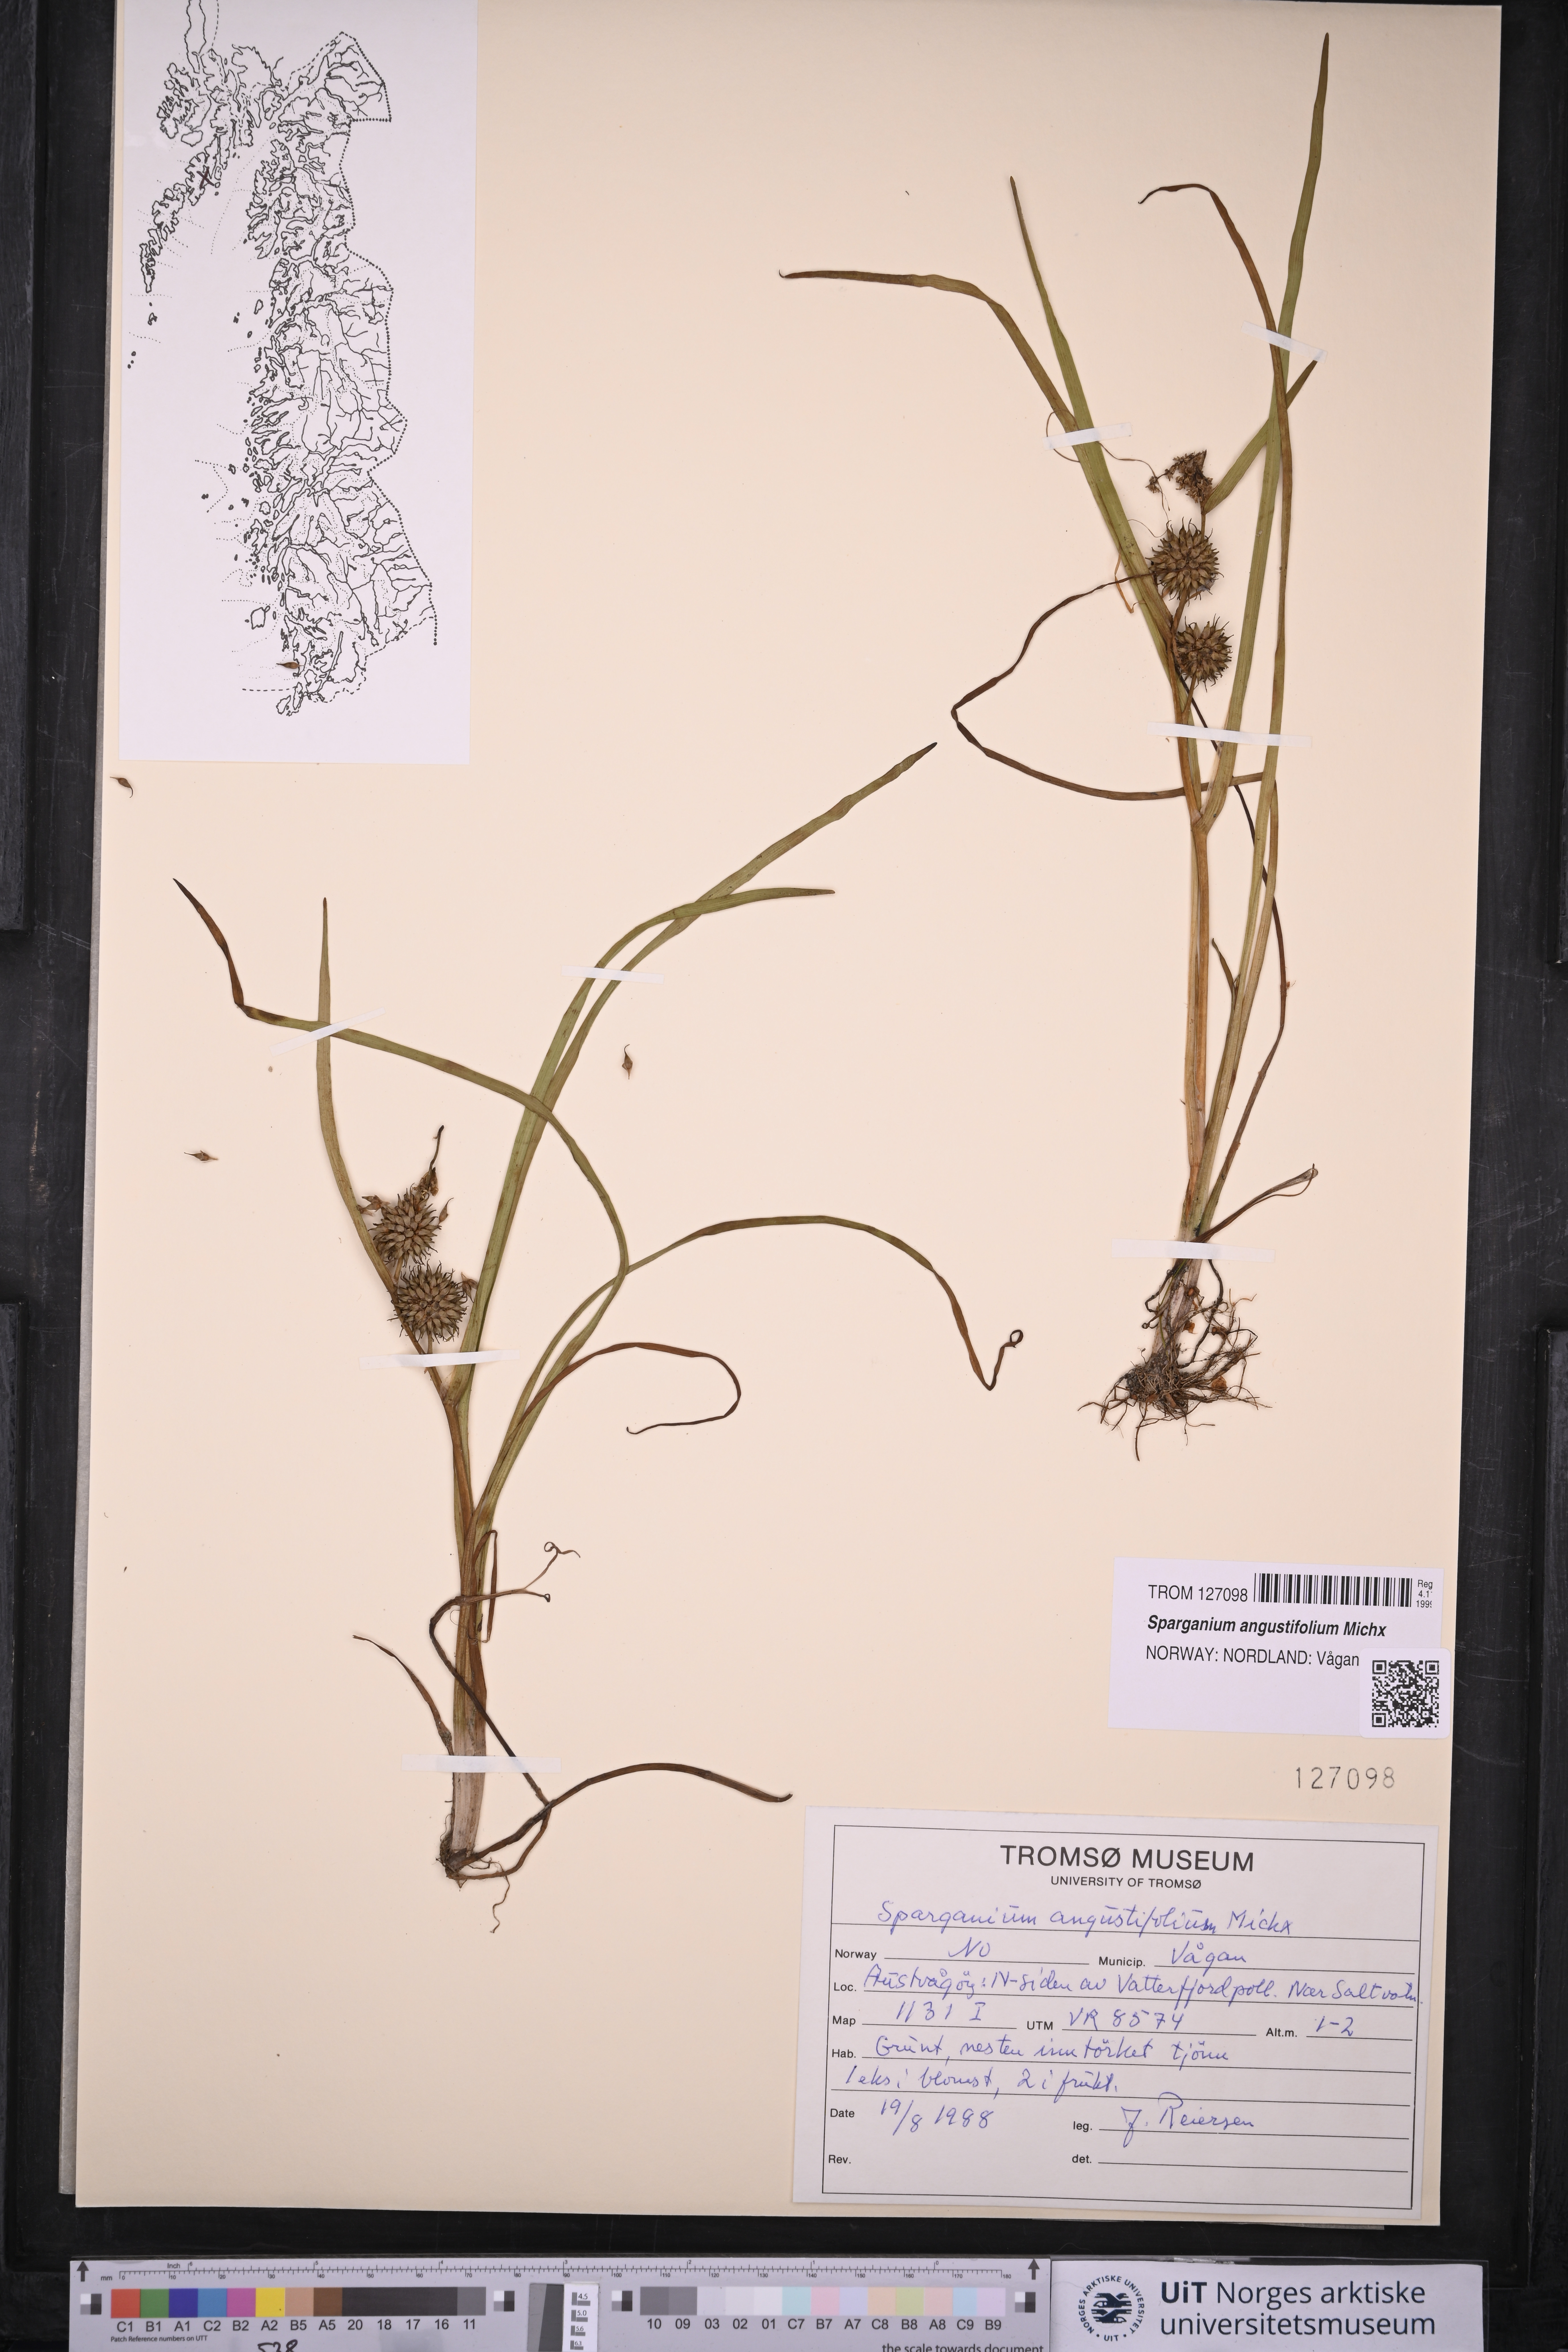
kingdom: Plantae
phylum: Tracheophyta
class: Liliopsida
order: Poales
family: Typhaceae
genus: Sparganium
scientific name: Sparganium angustifolium
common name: Floating bur-reed
